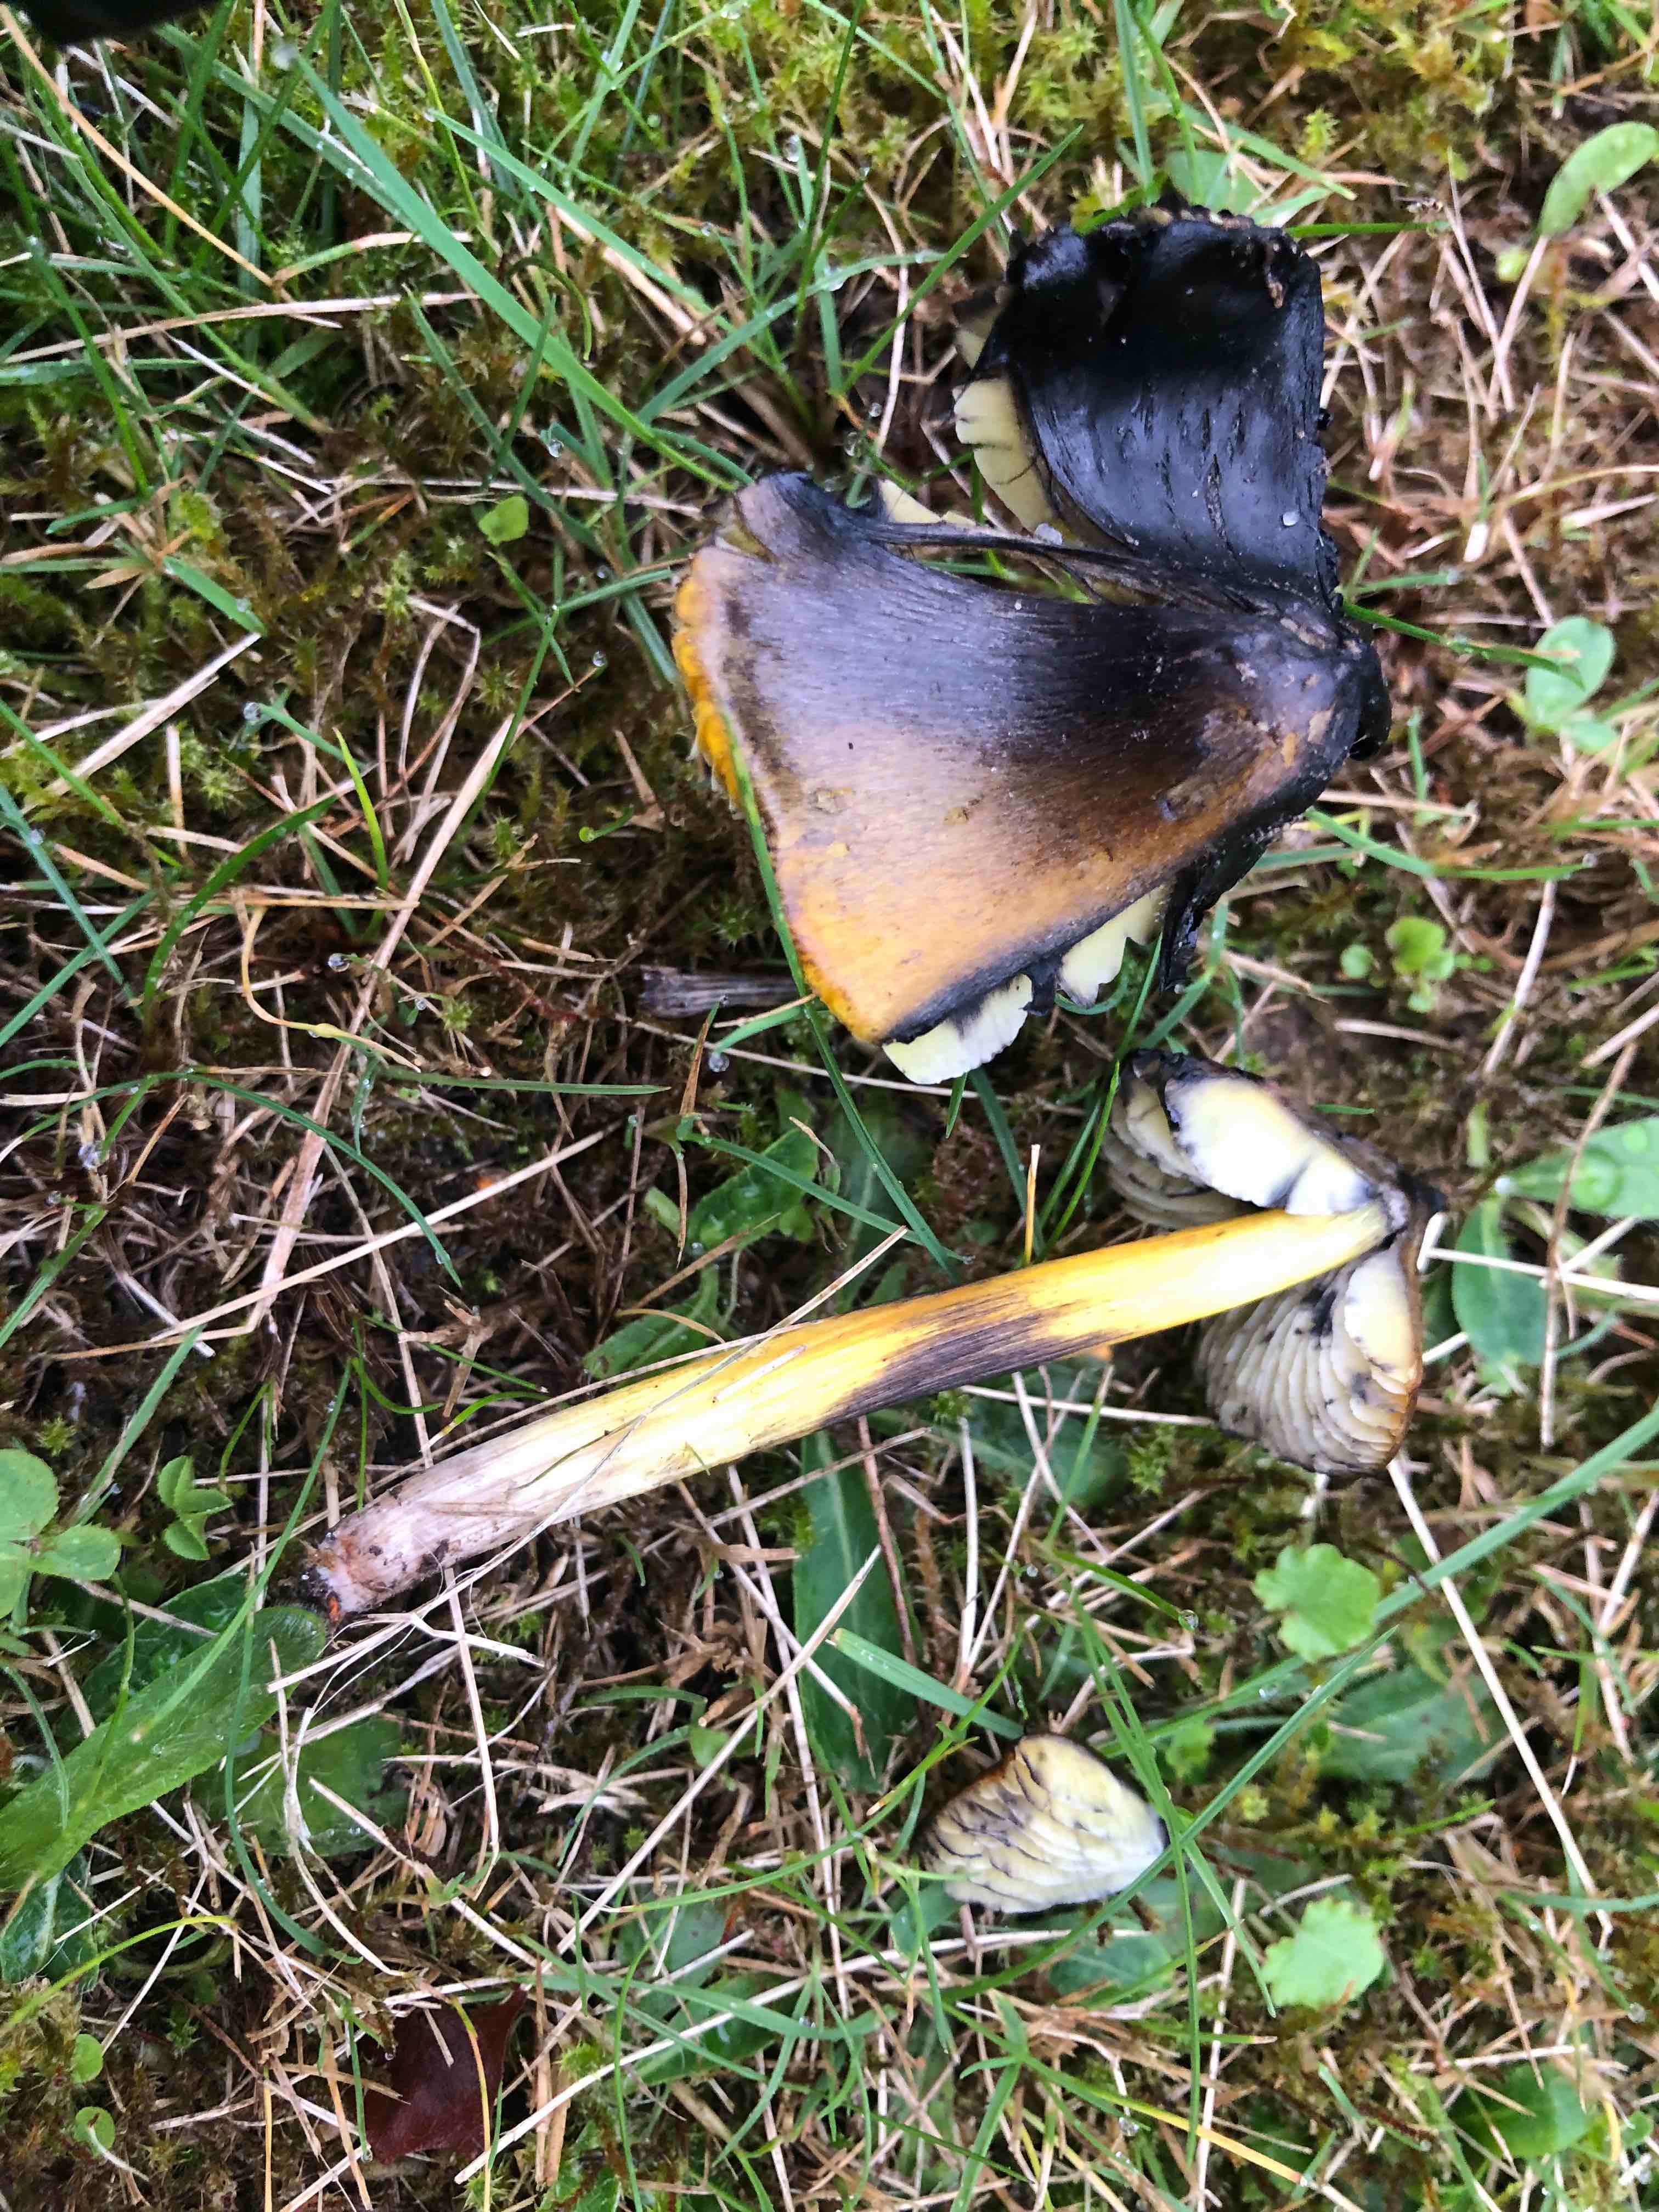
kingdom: Fungi
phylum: Basidiomycota
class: Agaricomycetes
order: Agaricales
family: Hygrophoraceae
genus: Hygrocybe
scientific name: Hygrocybe conica
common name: kegle-vokshat
